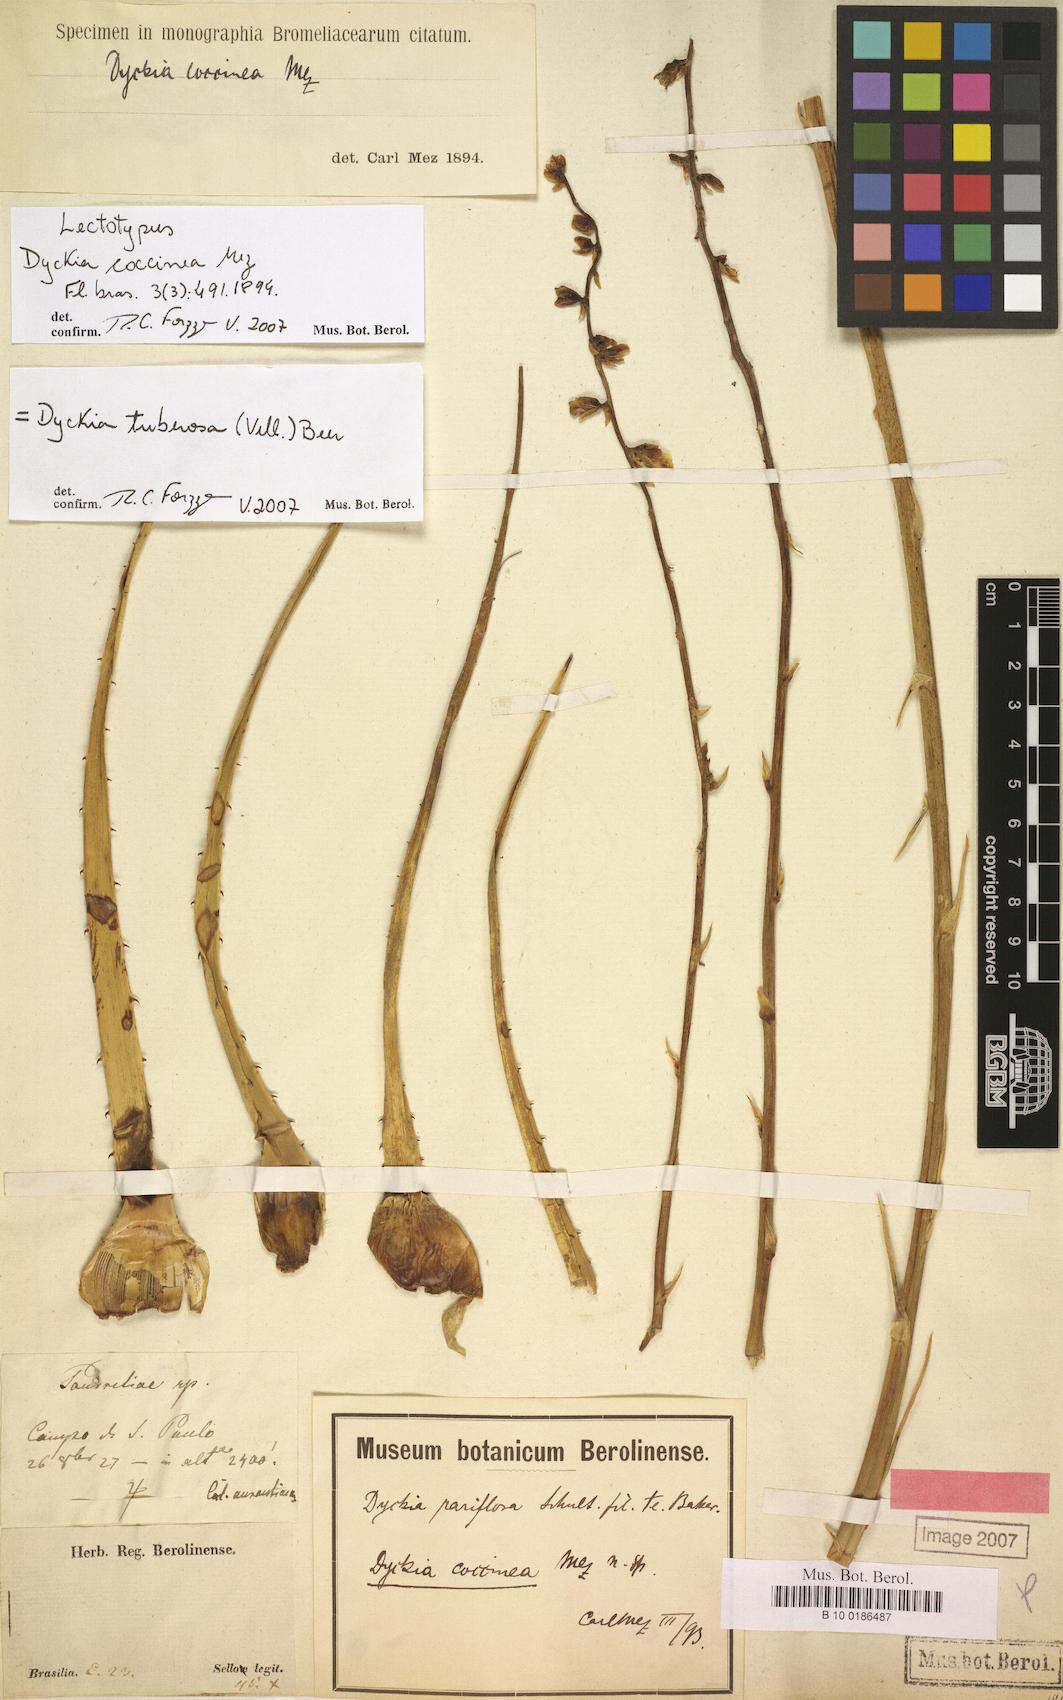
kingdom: Plantae
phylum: Tracheophyta
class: Liliopsida
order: Poales
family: Bromeliaceae
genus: Dyckia
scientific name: Dyckia tuberosa
